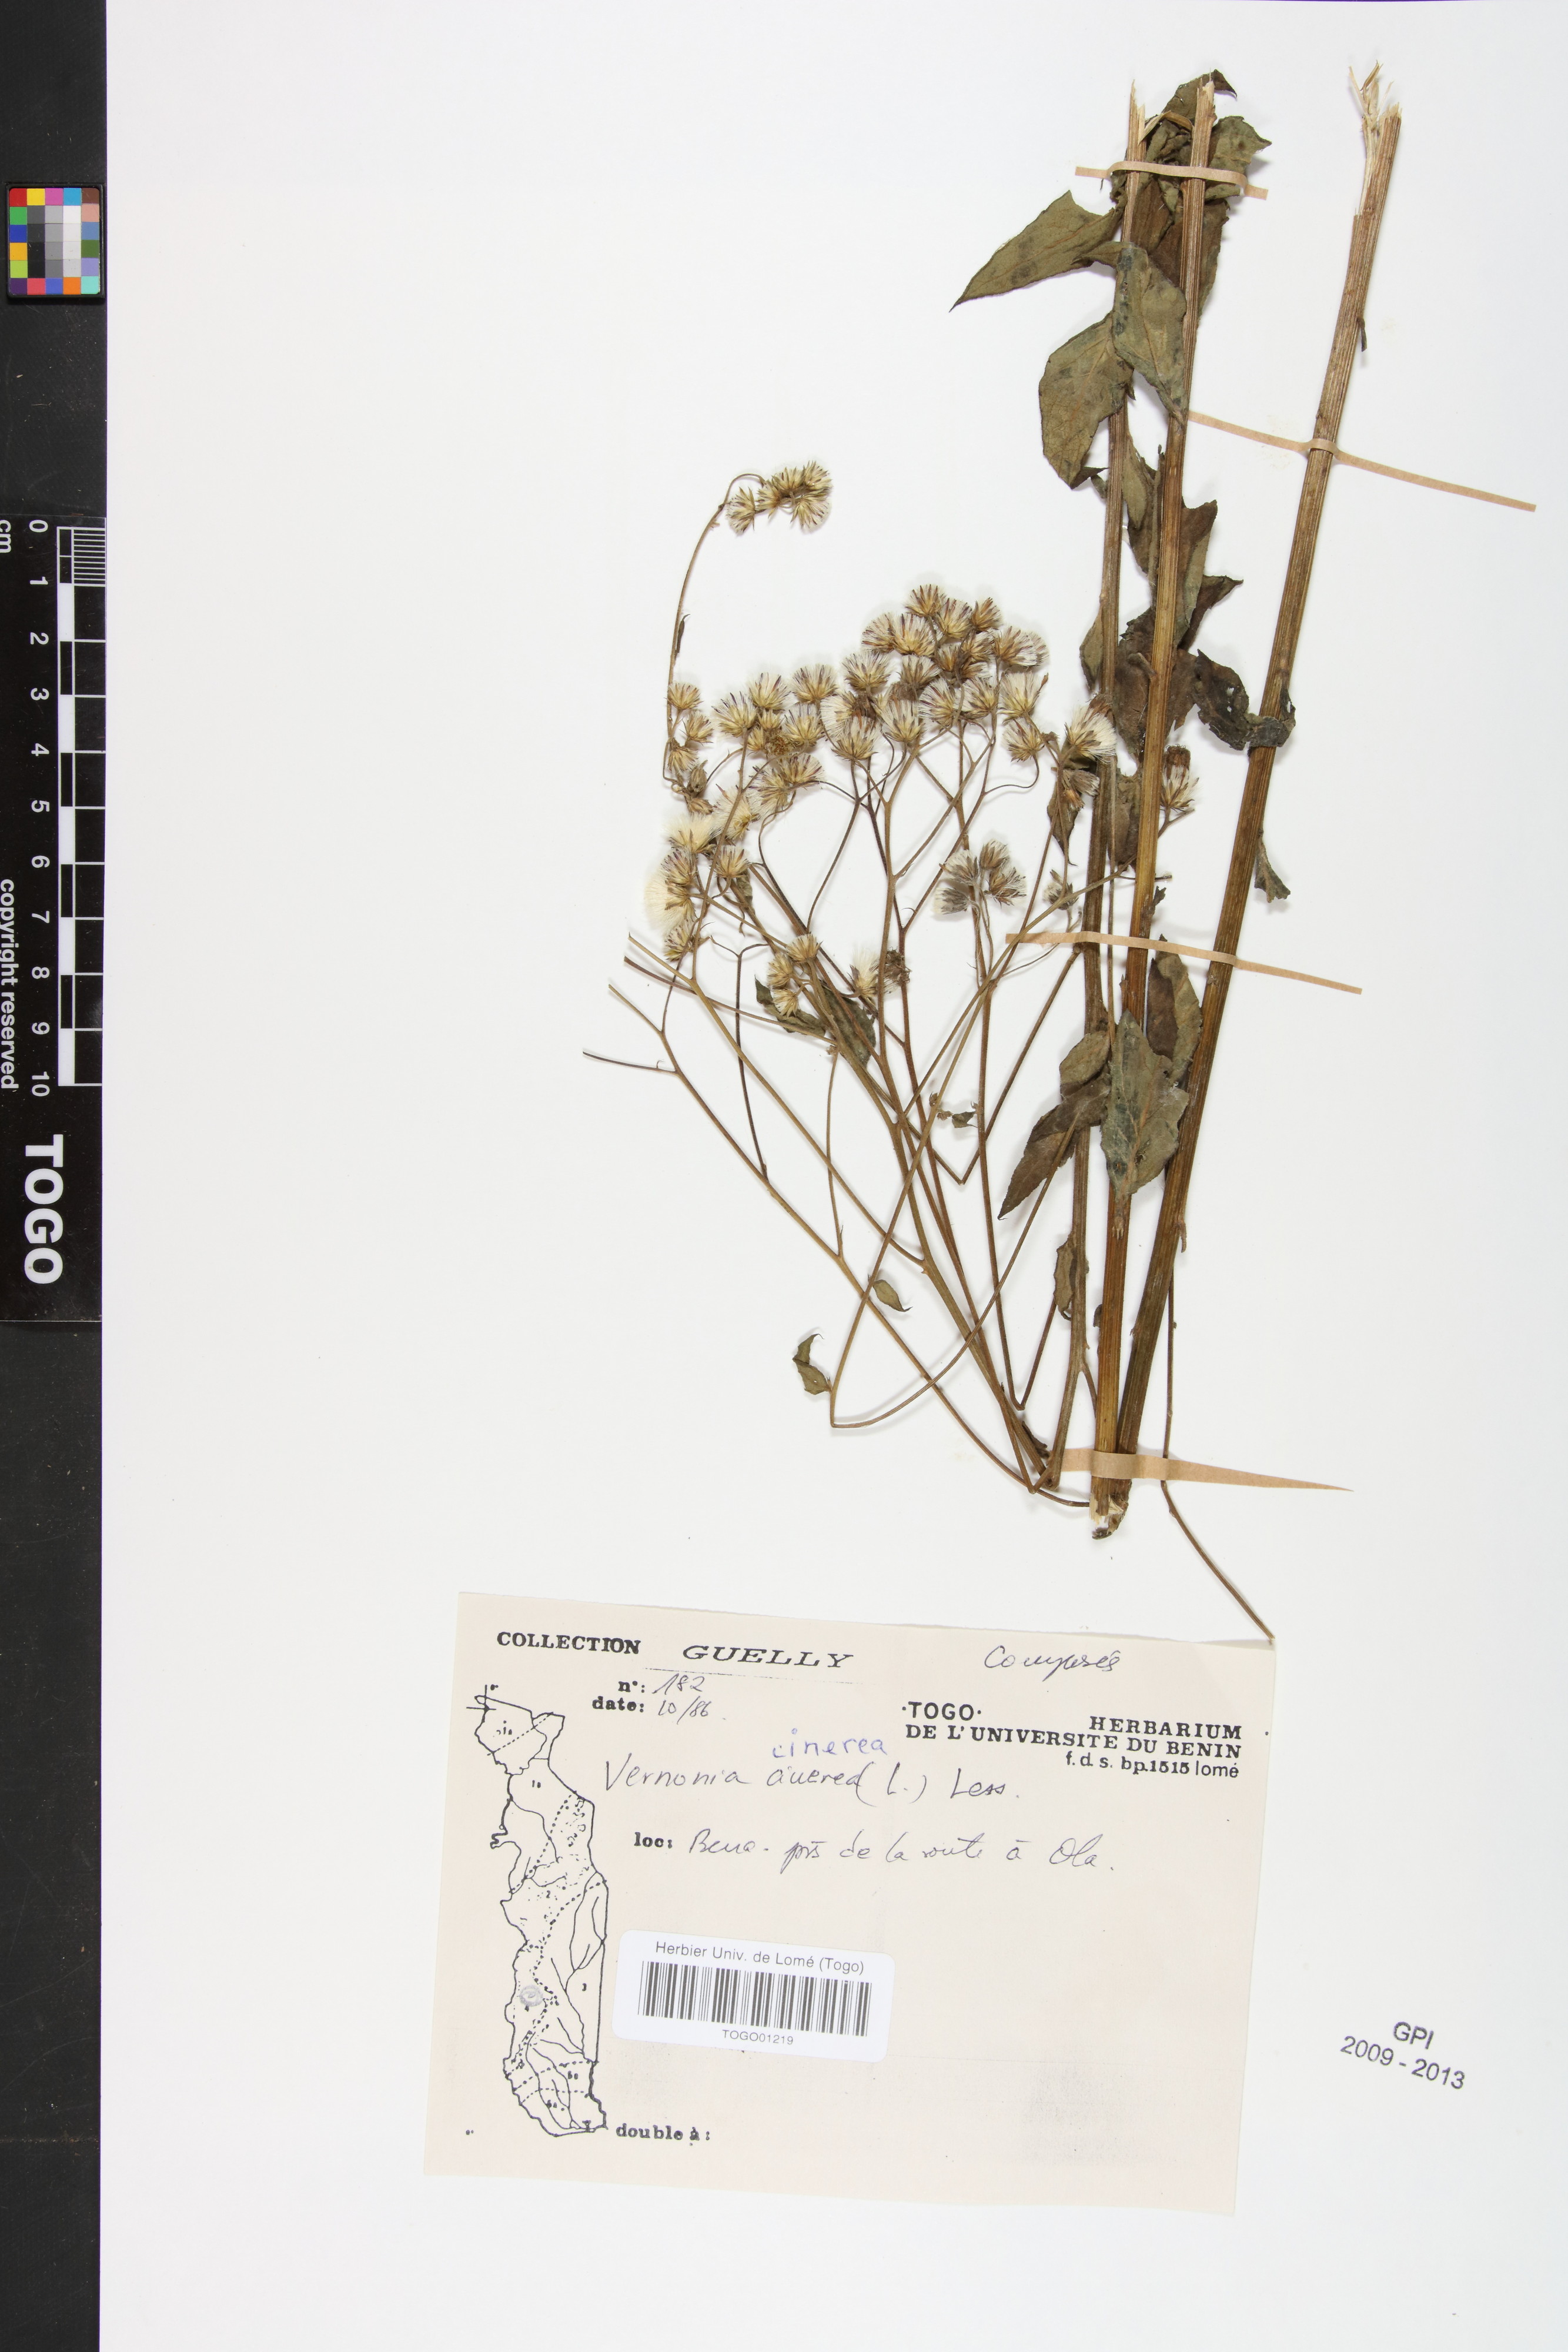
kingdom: Plantae
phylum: Tracheophyta
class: Magnoliopsida
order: Asterales
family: Asteraceae
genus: Cyanthillium
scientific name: Cyanthillium cinereum
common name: Little ironweed
